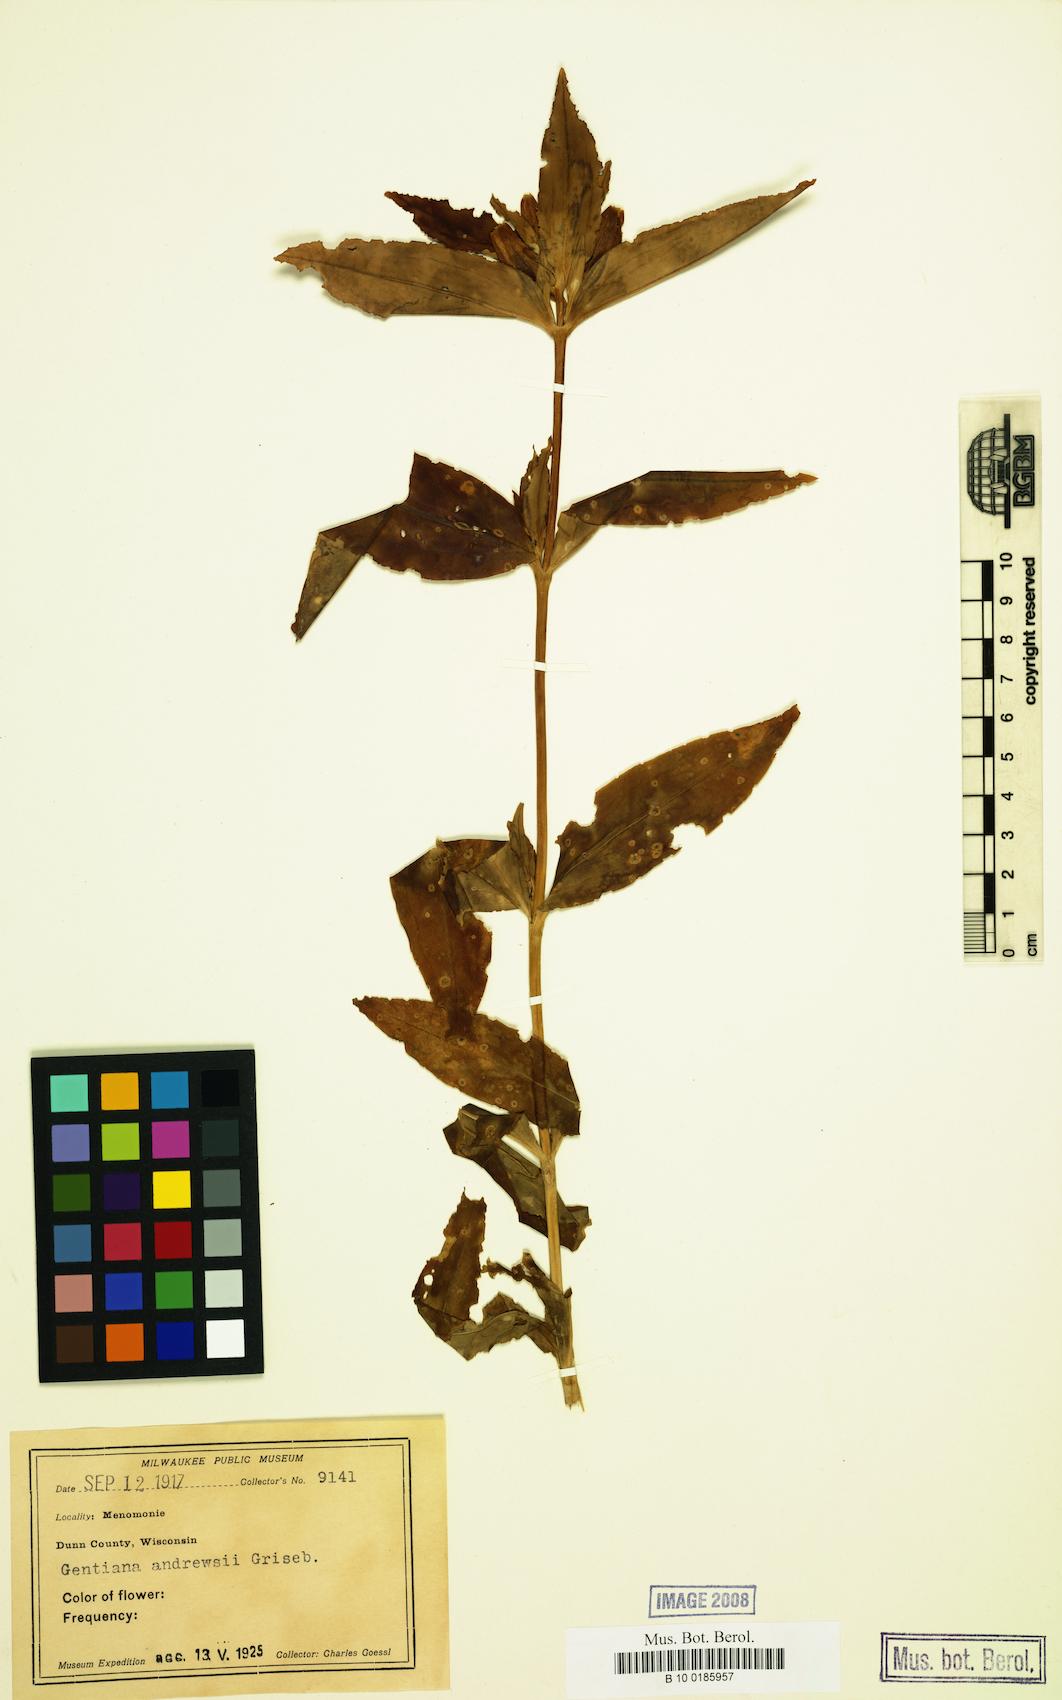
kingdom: Plantae
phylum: Tracheophyta
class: Magnoliopsida
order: Gentianales
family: Gentianaceae
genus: Gentiana
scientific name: Gentiana andrewsii
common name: Bottle gentian
